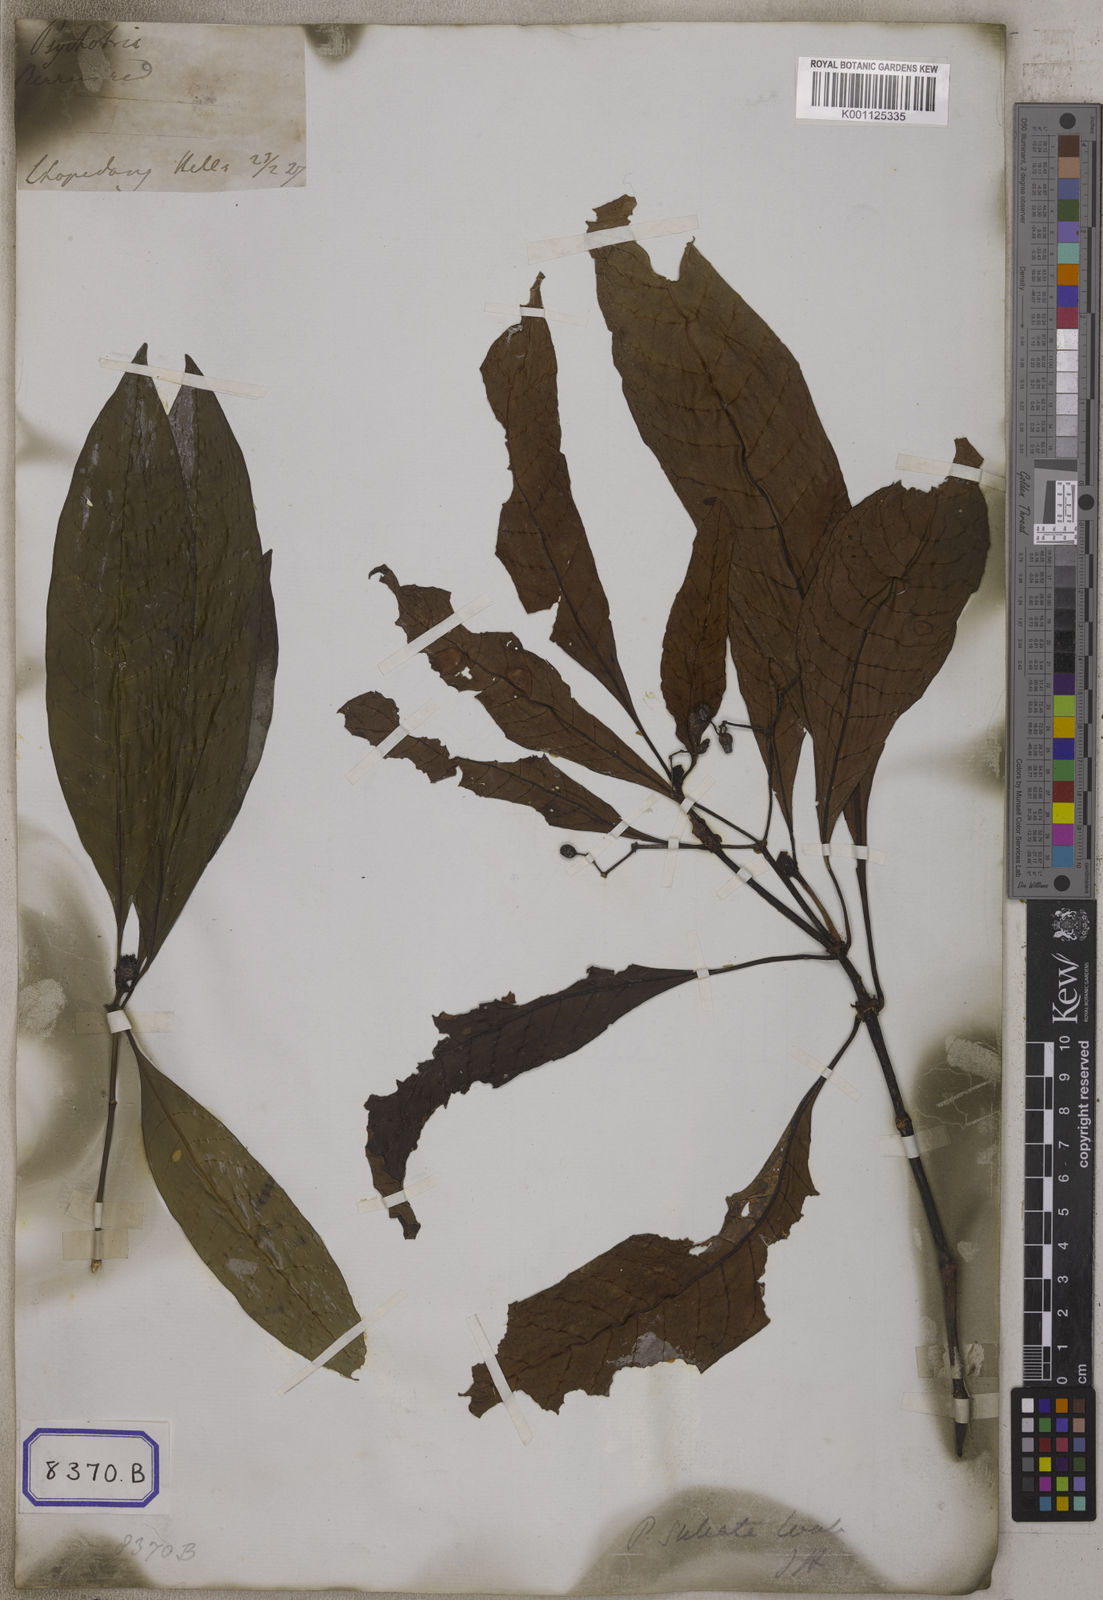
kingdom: Plantae
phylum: Tracheophyta
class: Magnoliopsida
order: Gentianales
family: Rubiaceae
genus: Psychotria
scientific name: Psychotria
